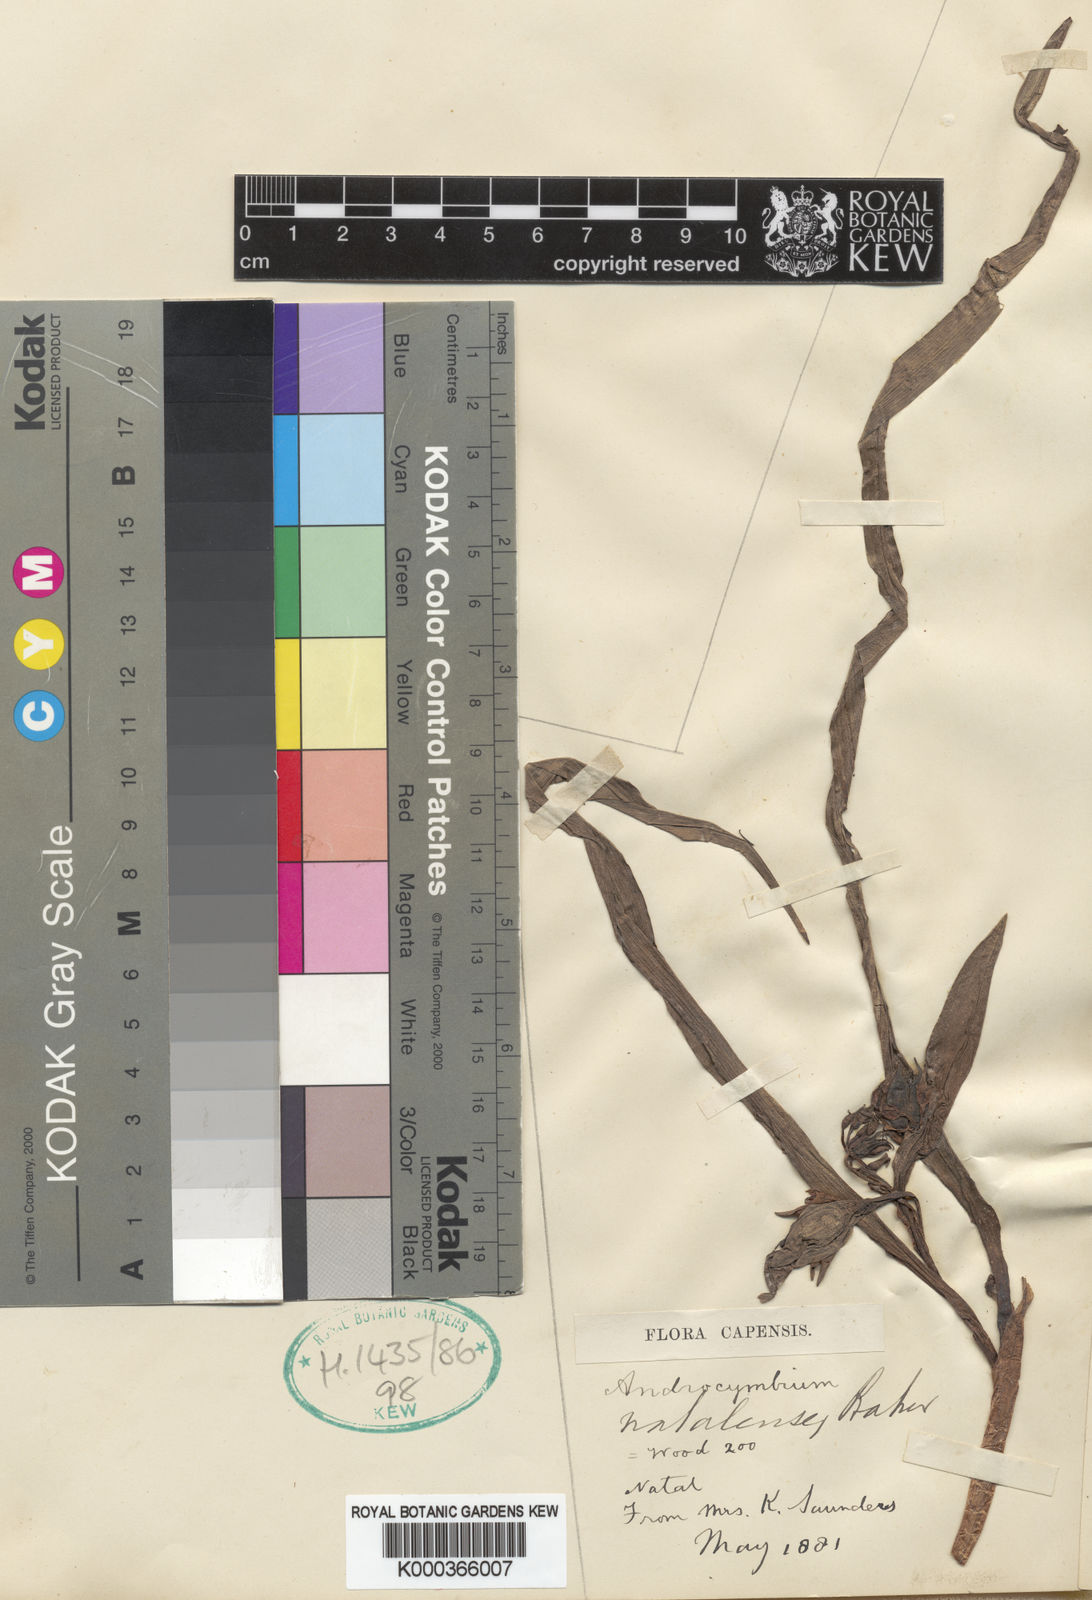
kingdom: Plantae
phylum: Tracheophyta
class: Liliopsida
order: Liliales
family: Colchicaceae
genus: Colchicum
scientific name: Colchicum natalense
